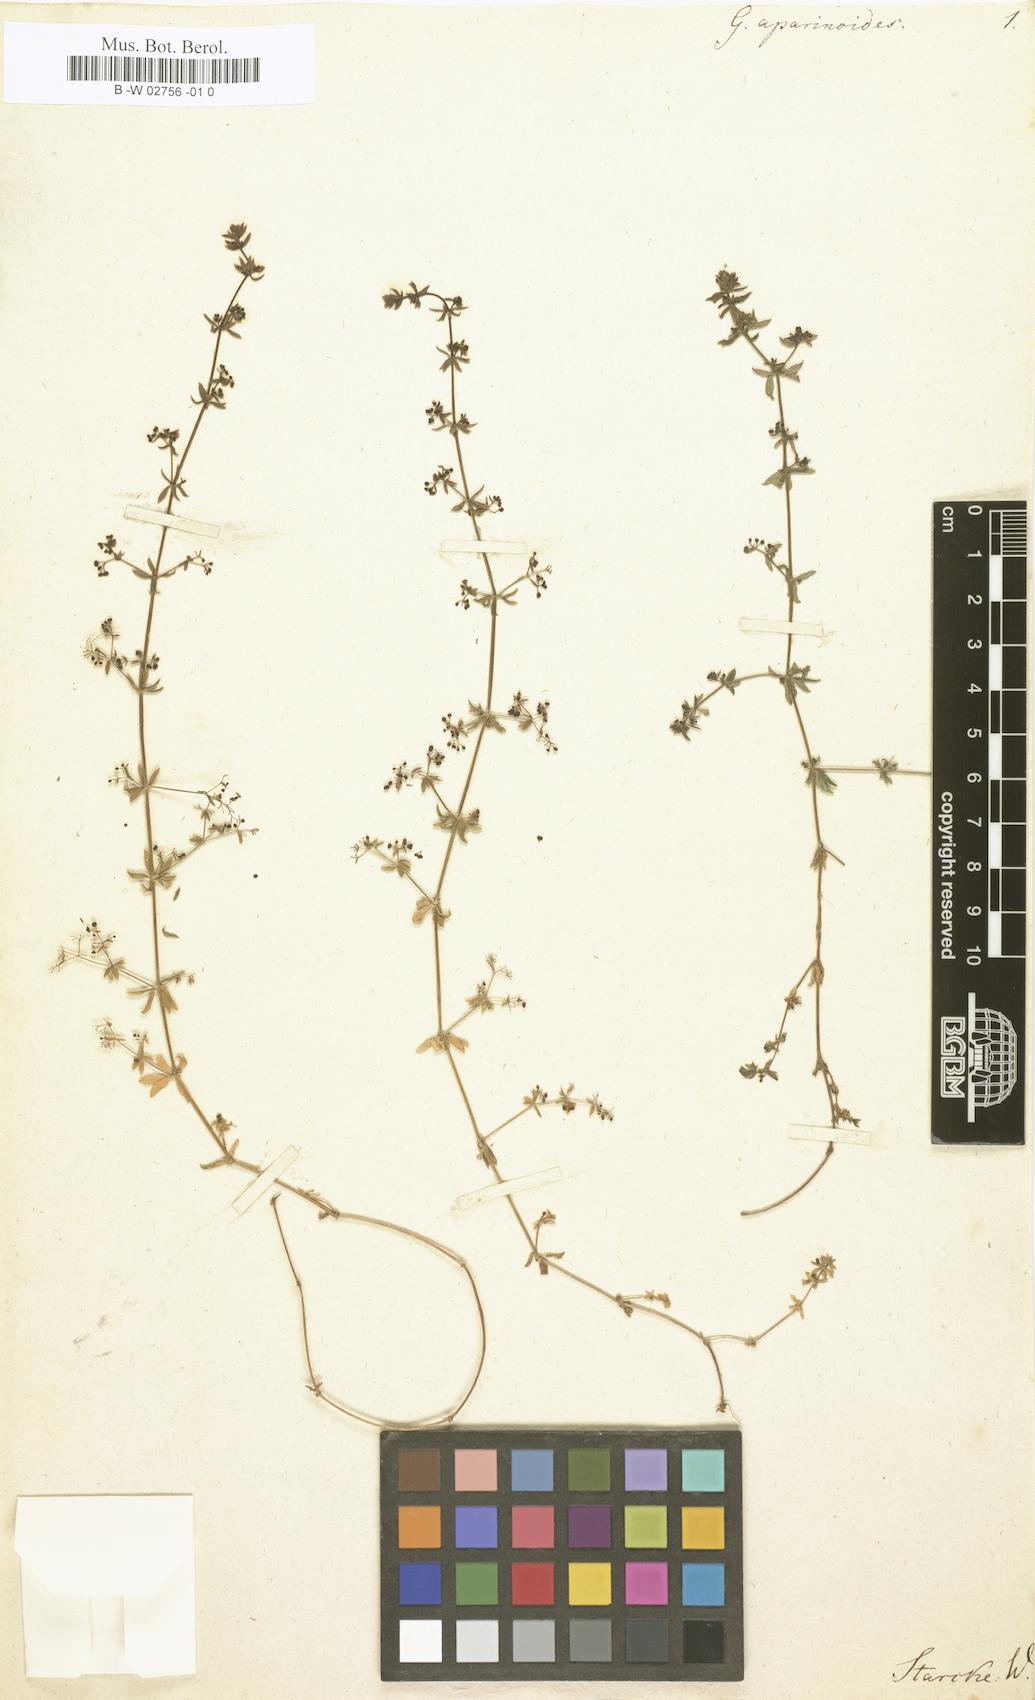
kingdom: Plantae
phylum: Tracheophyta
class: Magnoliopsida
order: Gentianales
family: Rubiaceae
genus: Galium
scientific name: Galium aparinoides
